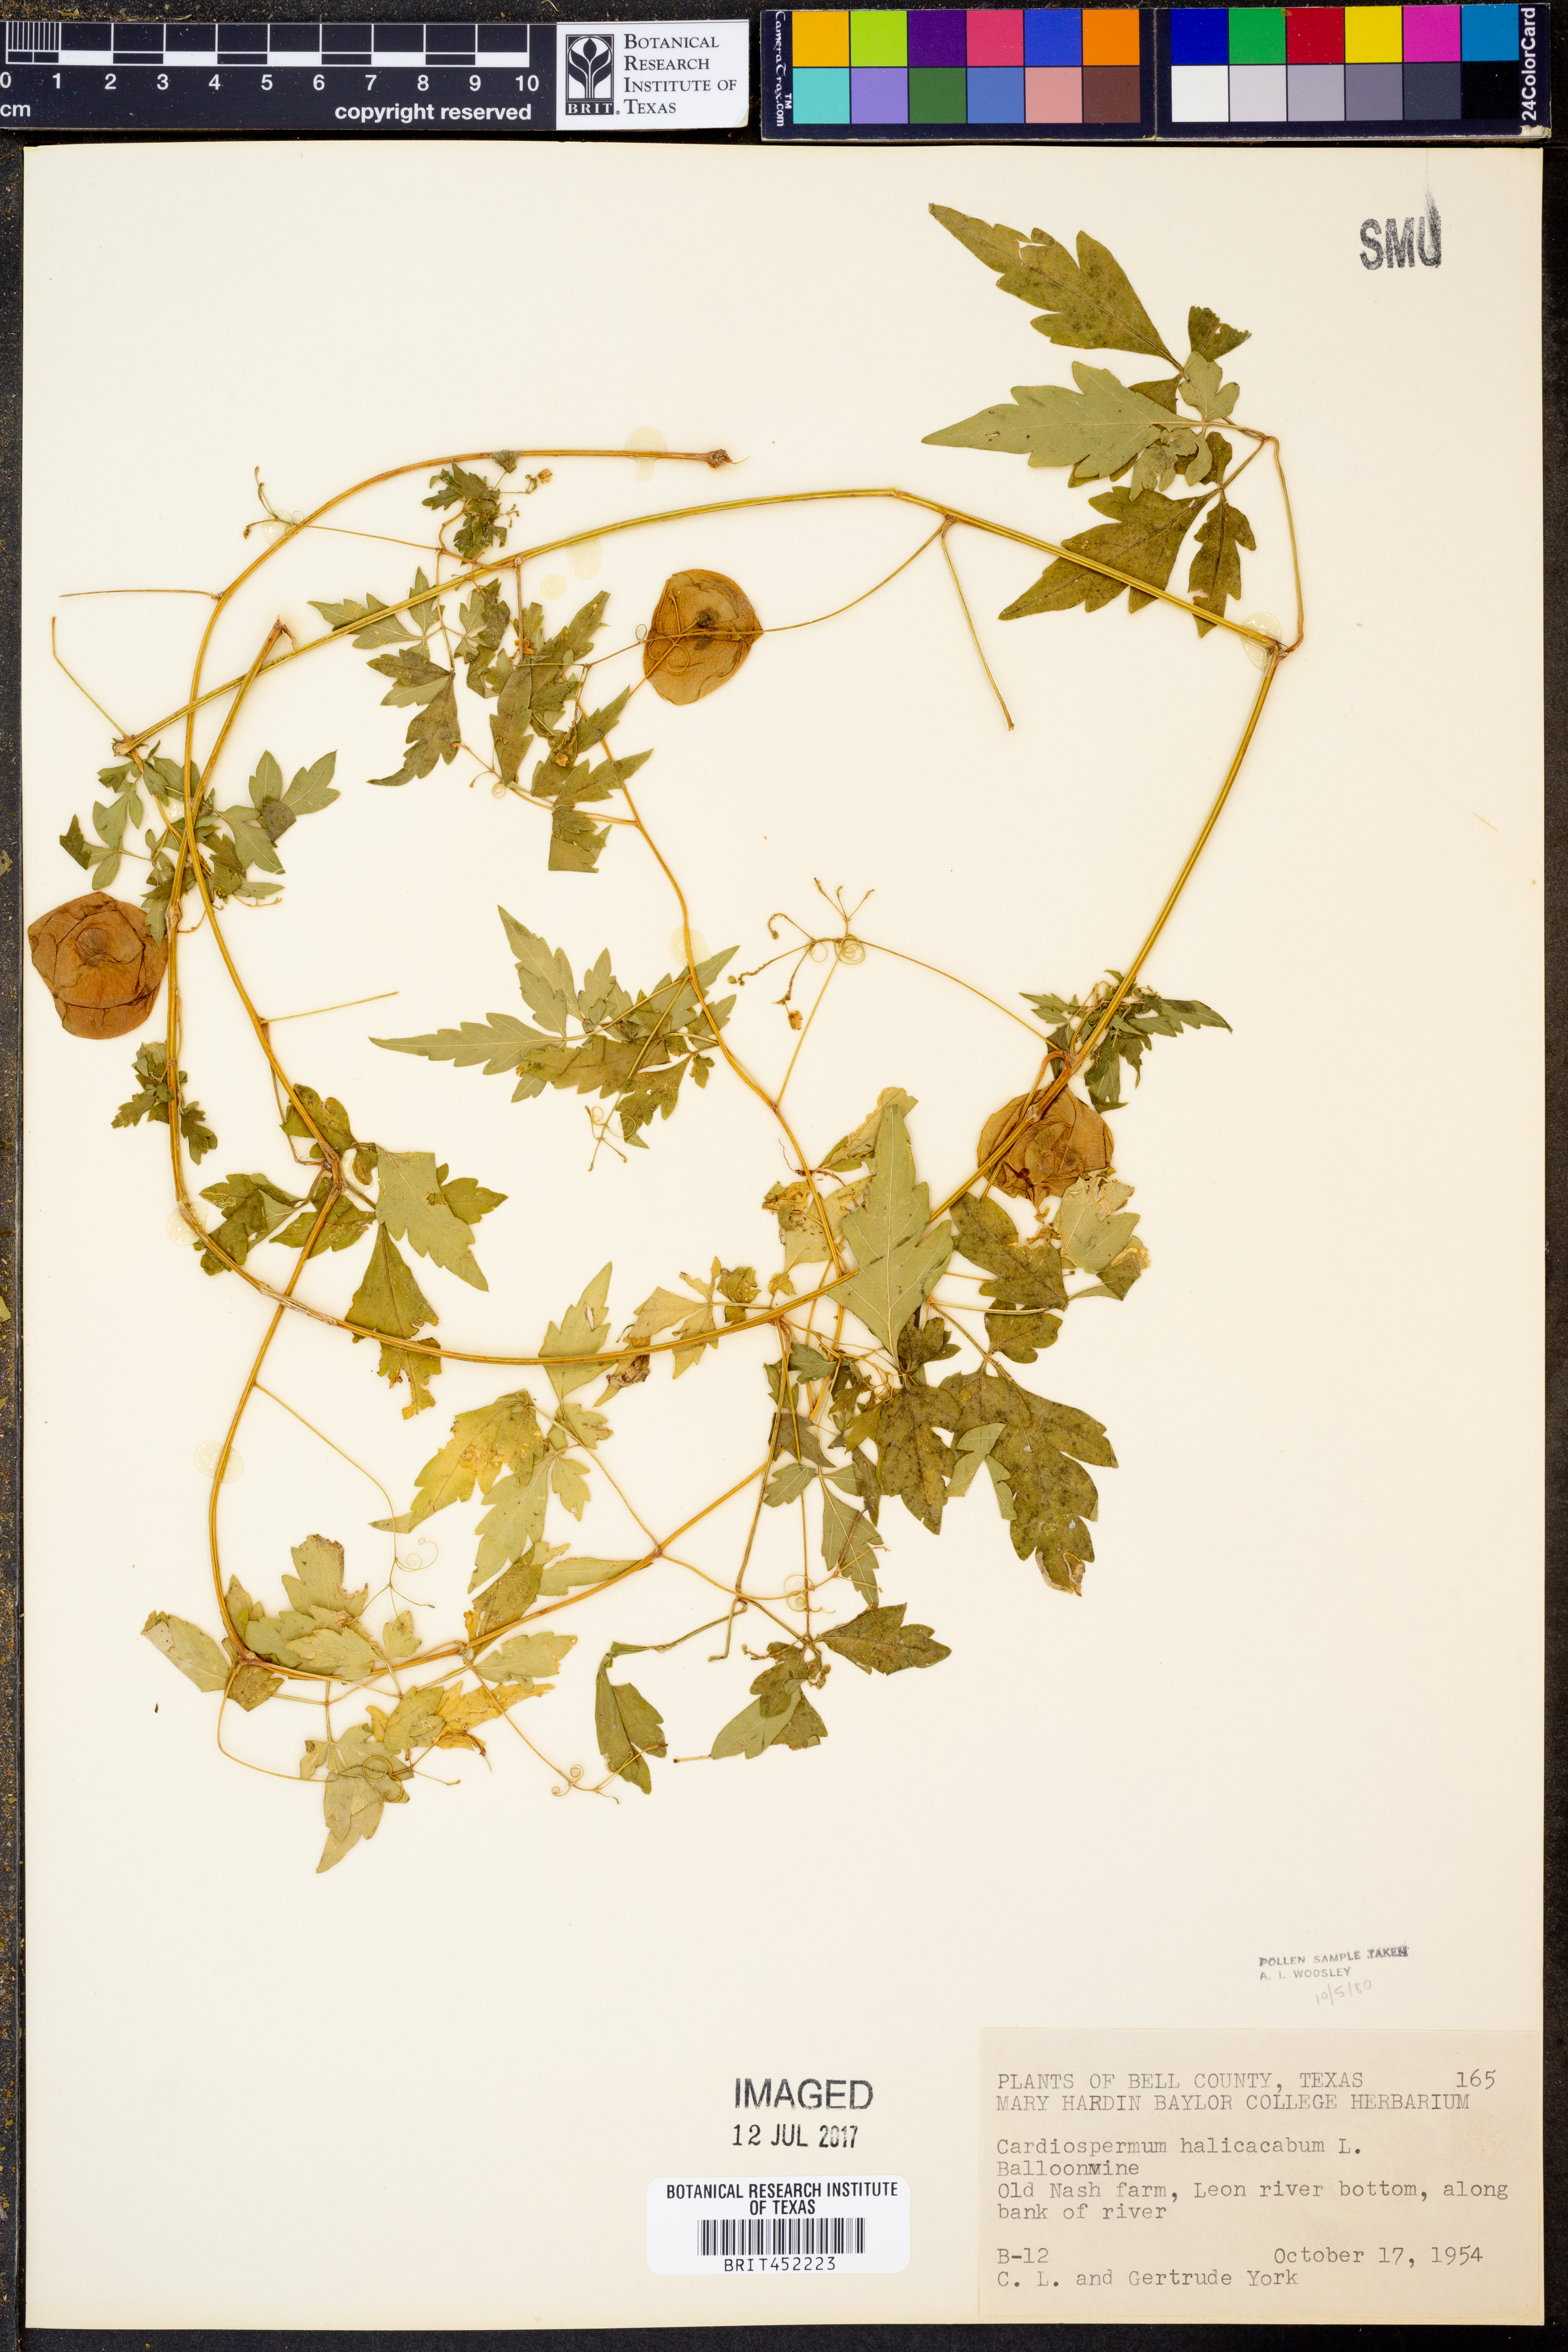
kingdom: Plantae
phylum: Tracheophyta
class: Magnoliopsida
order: Sapindales
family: Sapindaceae
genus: Cardiospermum
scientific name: Cardiospermum halicacabum
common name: Balloon vine
